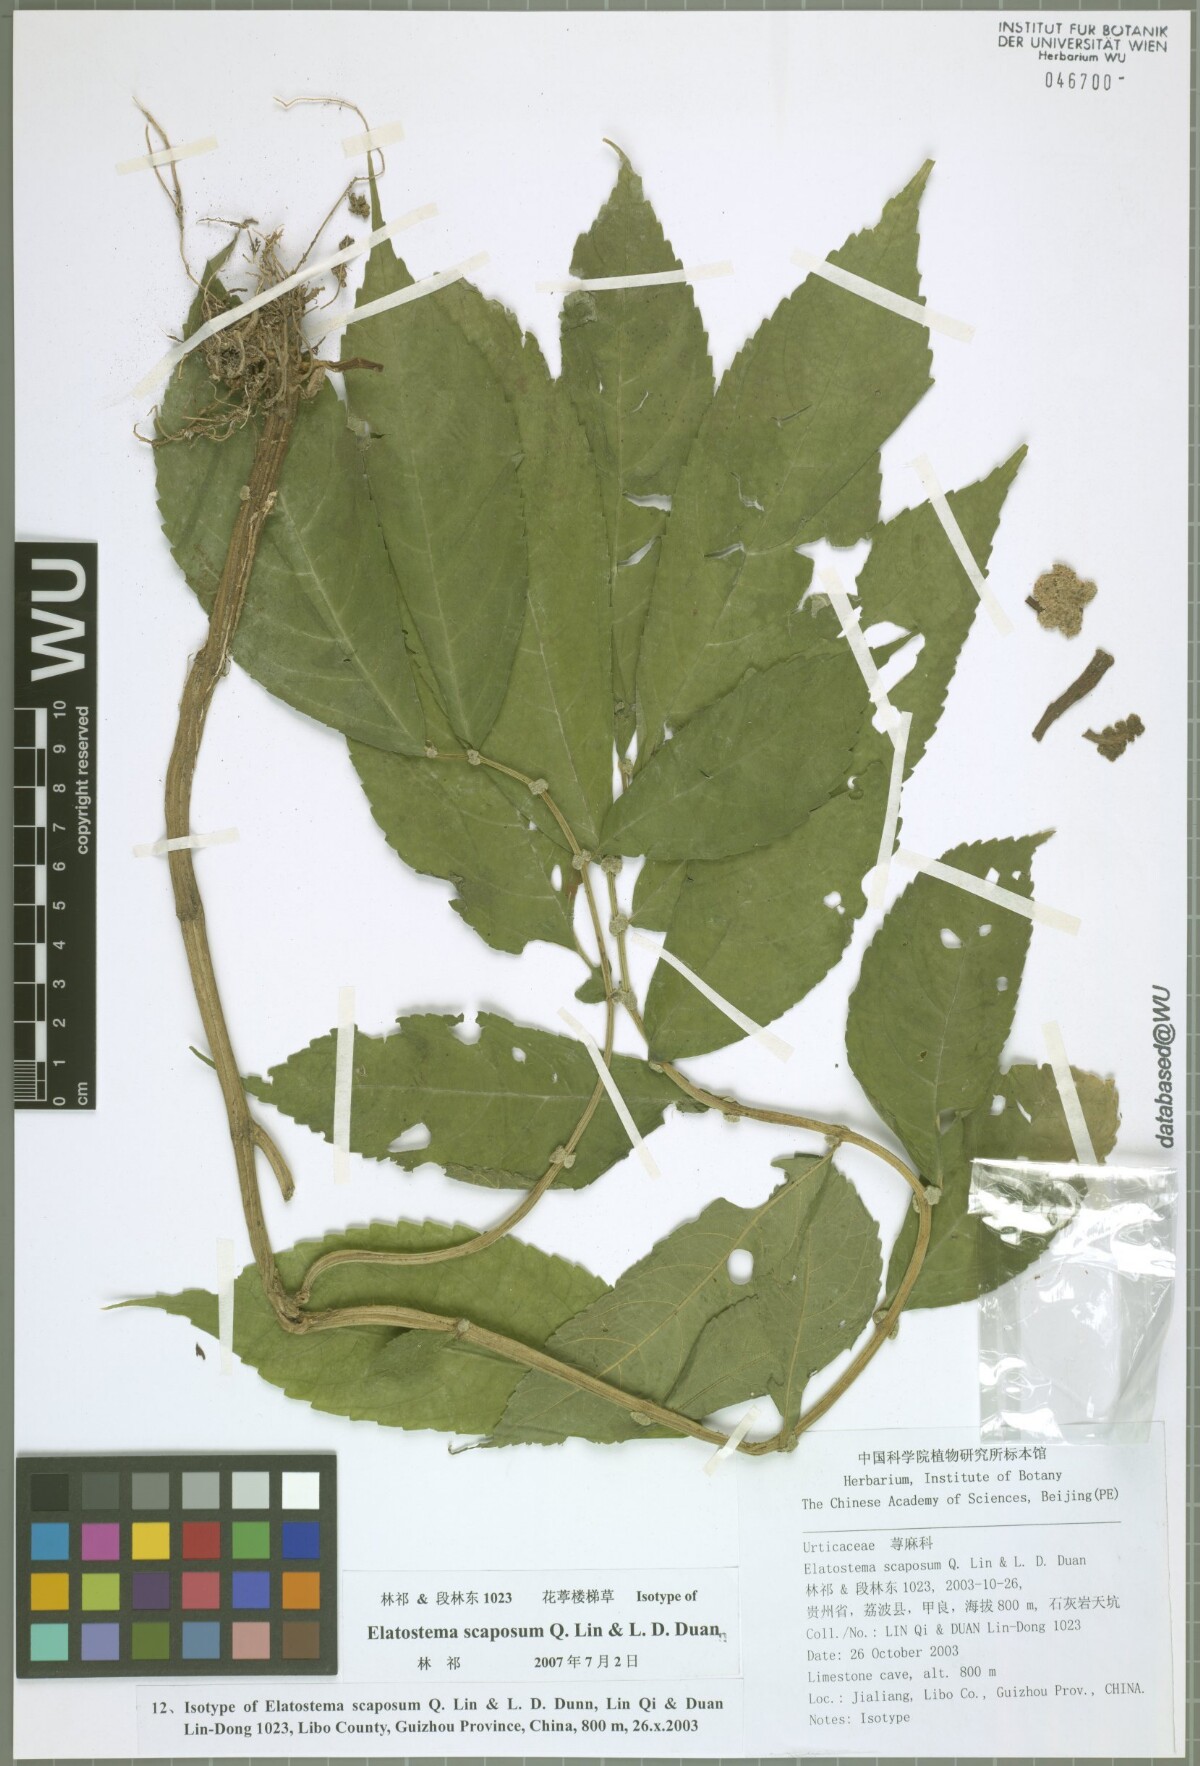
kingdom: Plantae
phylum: Tracheophyta
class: Magnoliopsida
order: Rosales
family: Urticaceae
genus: Elatostema
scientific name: Elatostema scaposum
